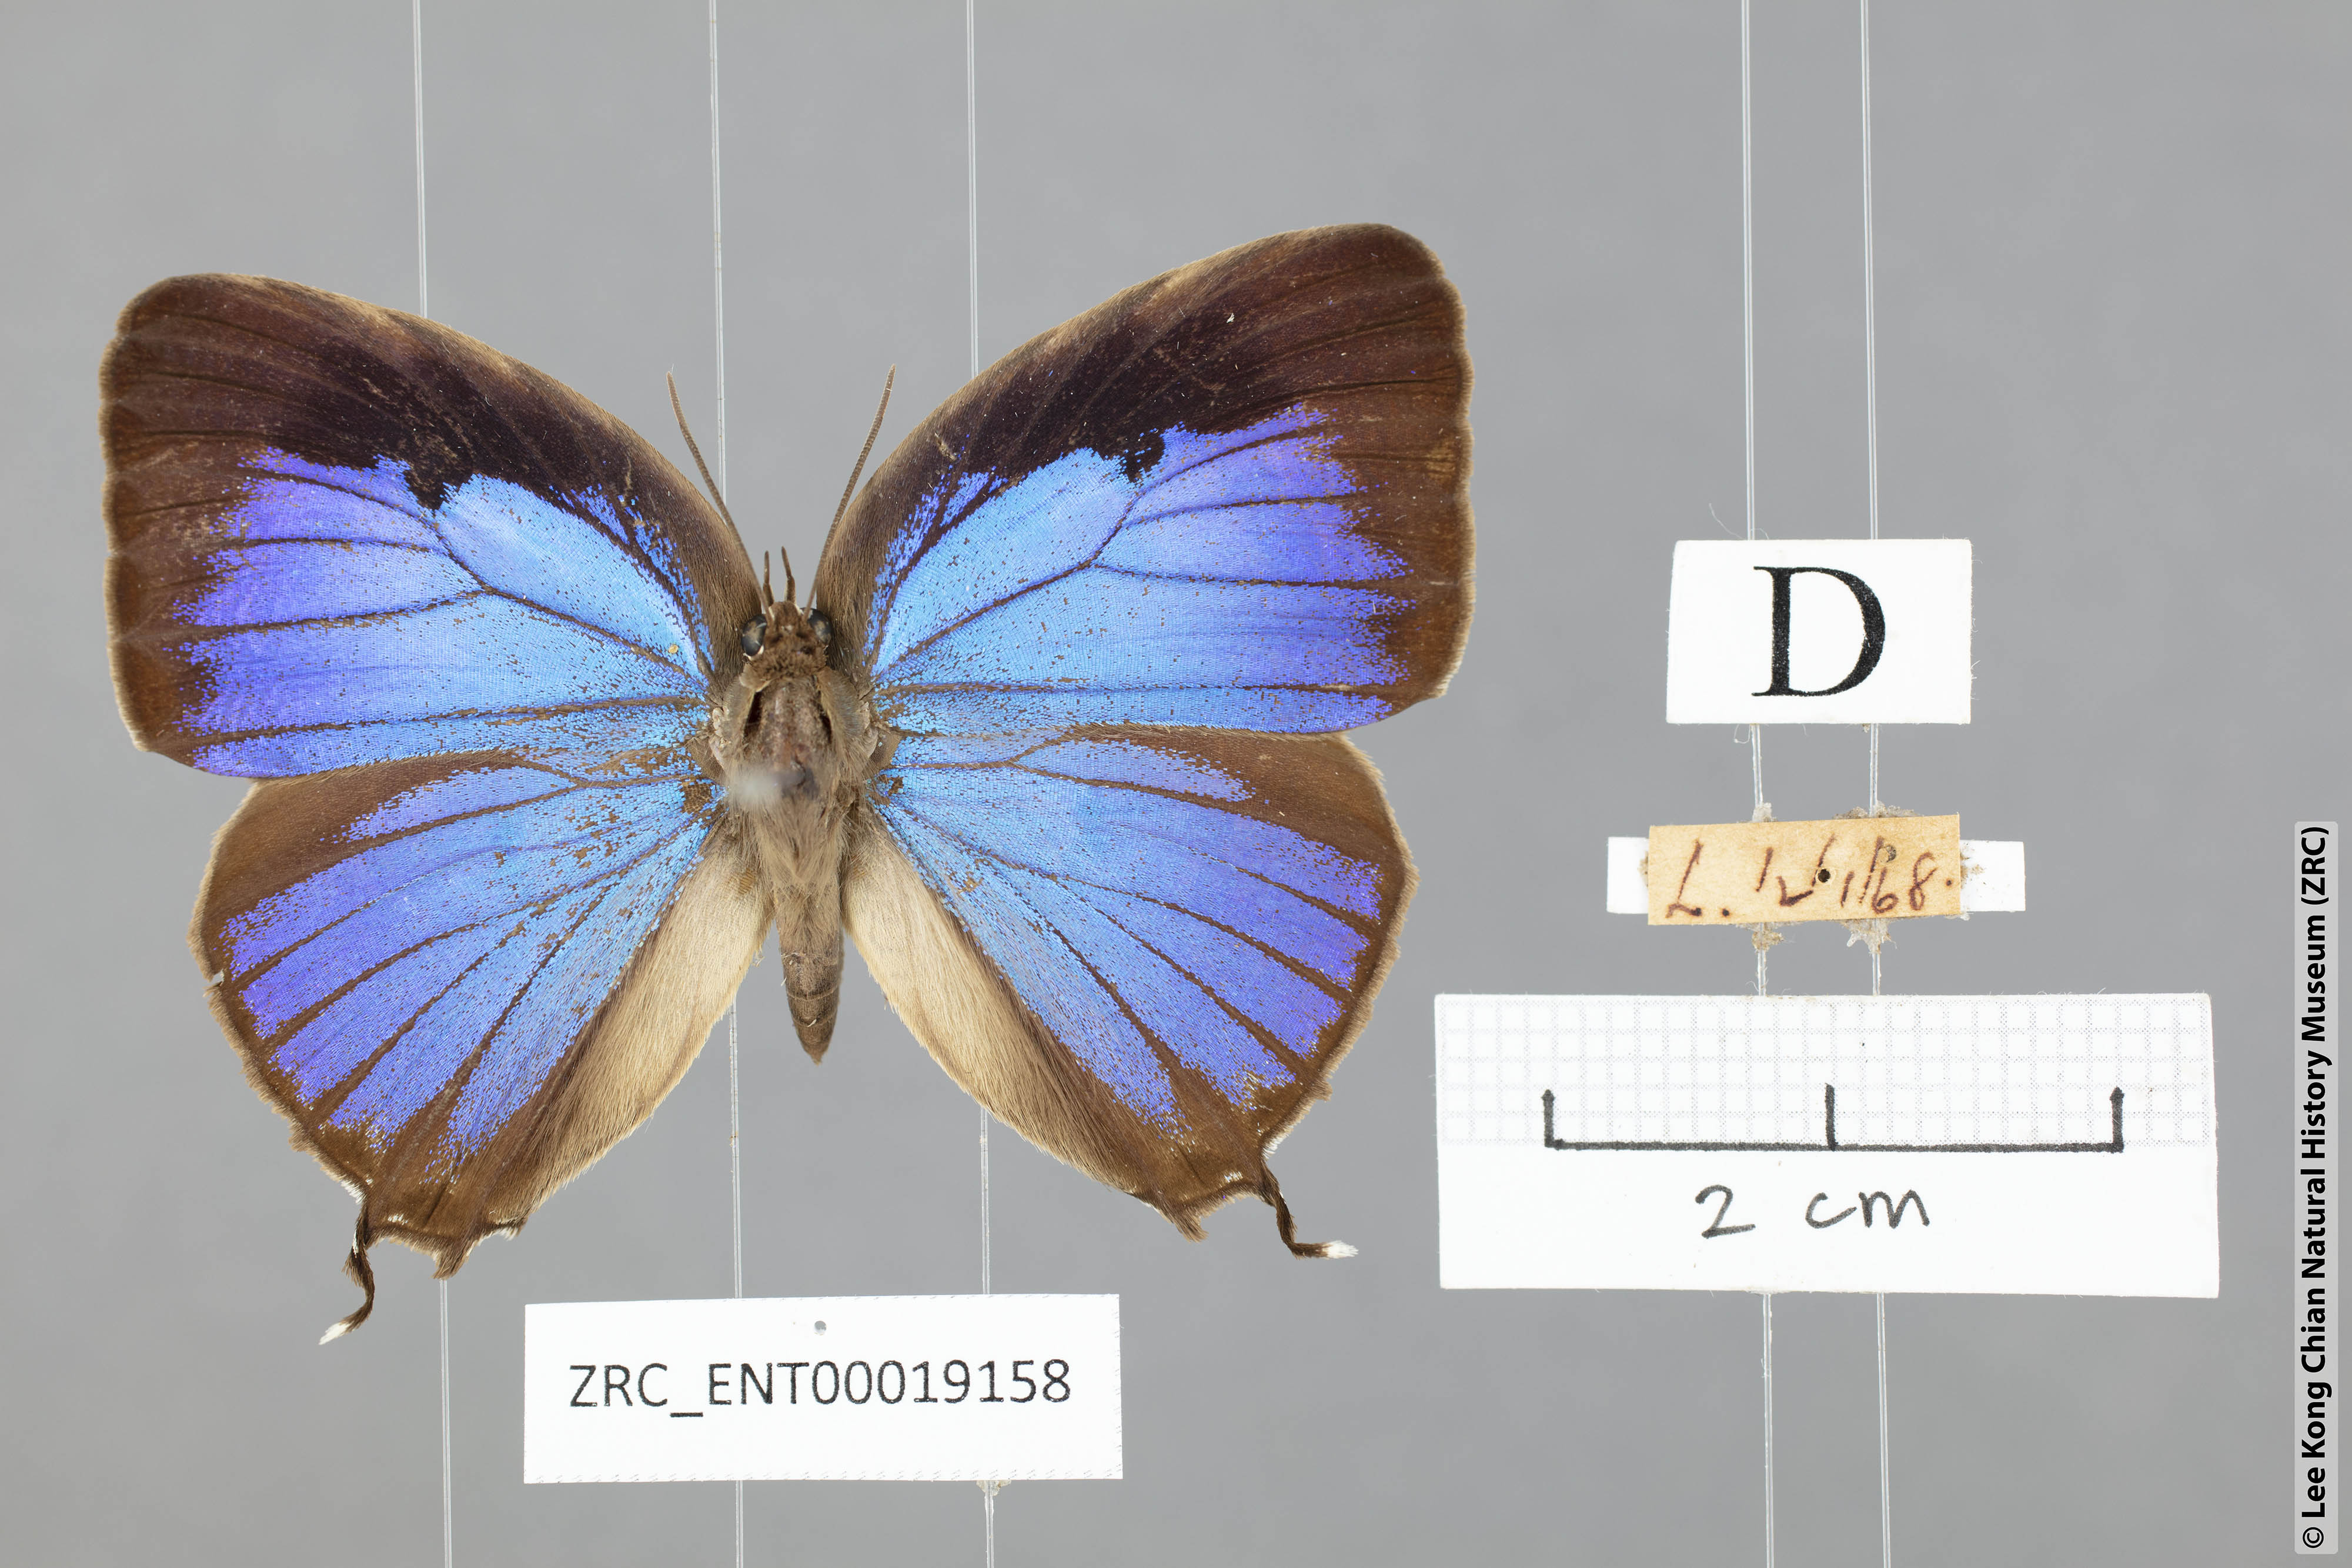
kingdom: Animalia
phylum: Arthropoda
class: Insecta
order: Lepidoptera
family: Lycaenidae
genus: Arhopala
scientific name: Arhopala anthelus
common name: Bushblue
